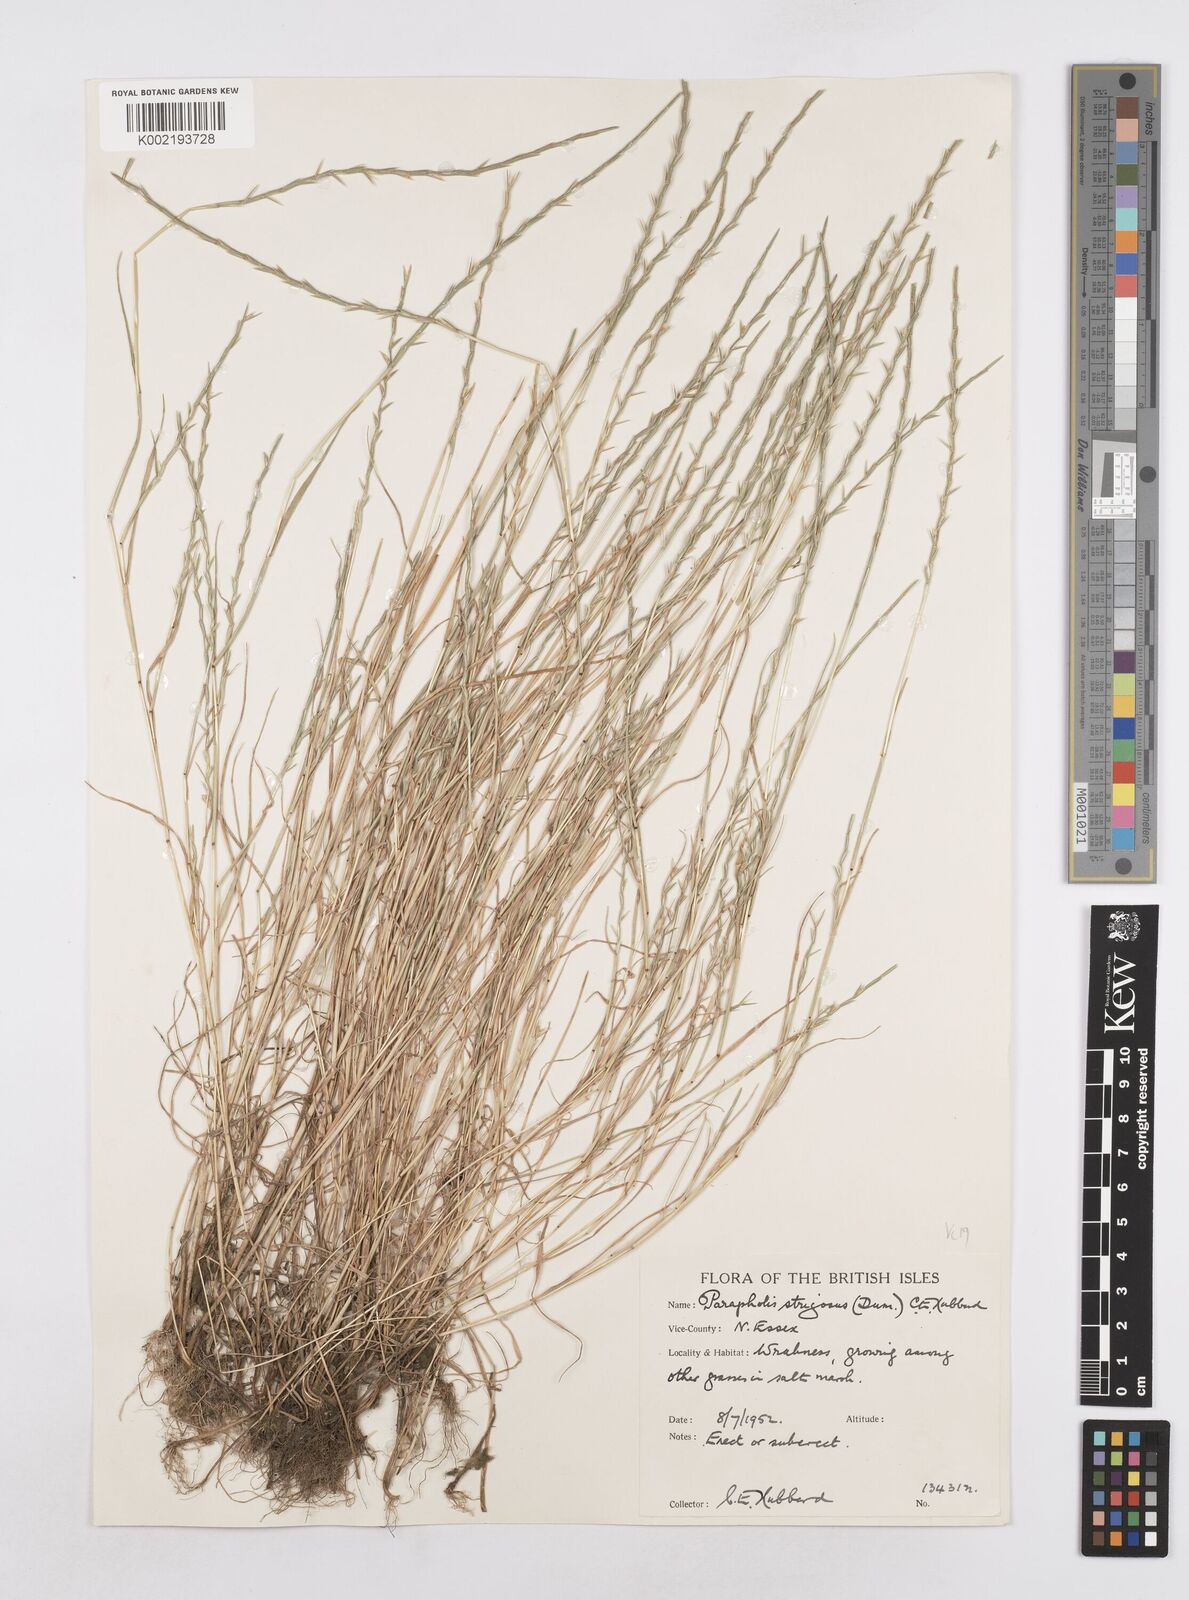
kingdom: Plantae
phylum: Tracheophyta
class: Liliopsida
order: Poales
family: Poaceae
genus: Parapholis
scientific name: Parapholis strigosa
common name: Hard-grass
